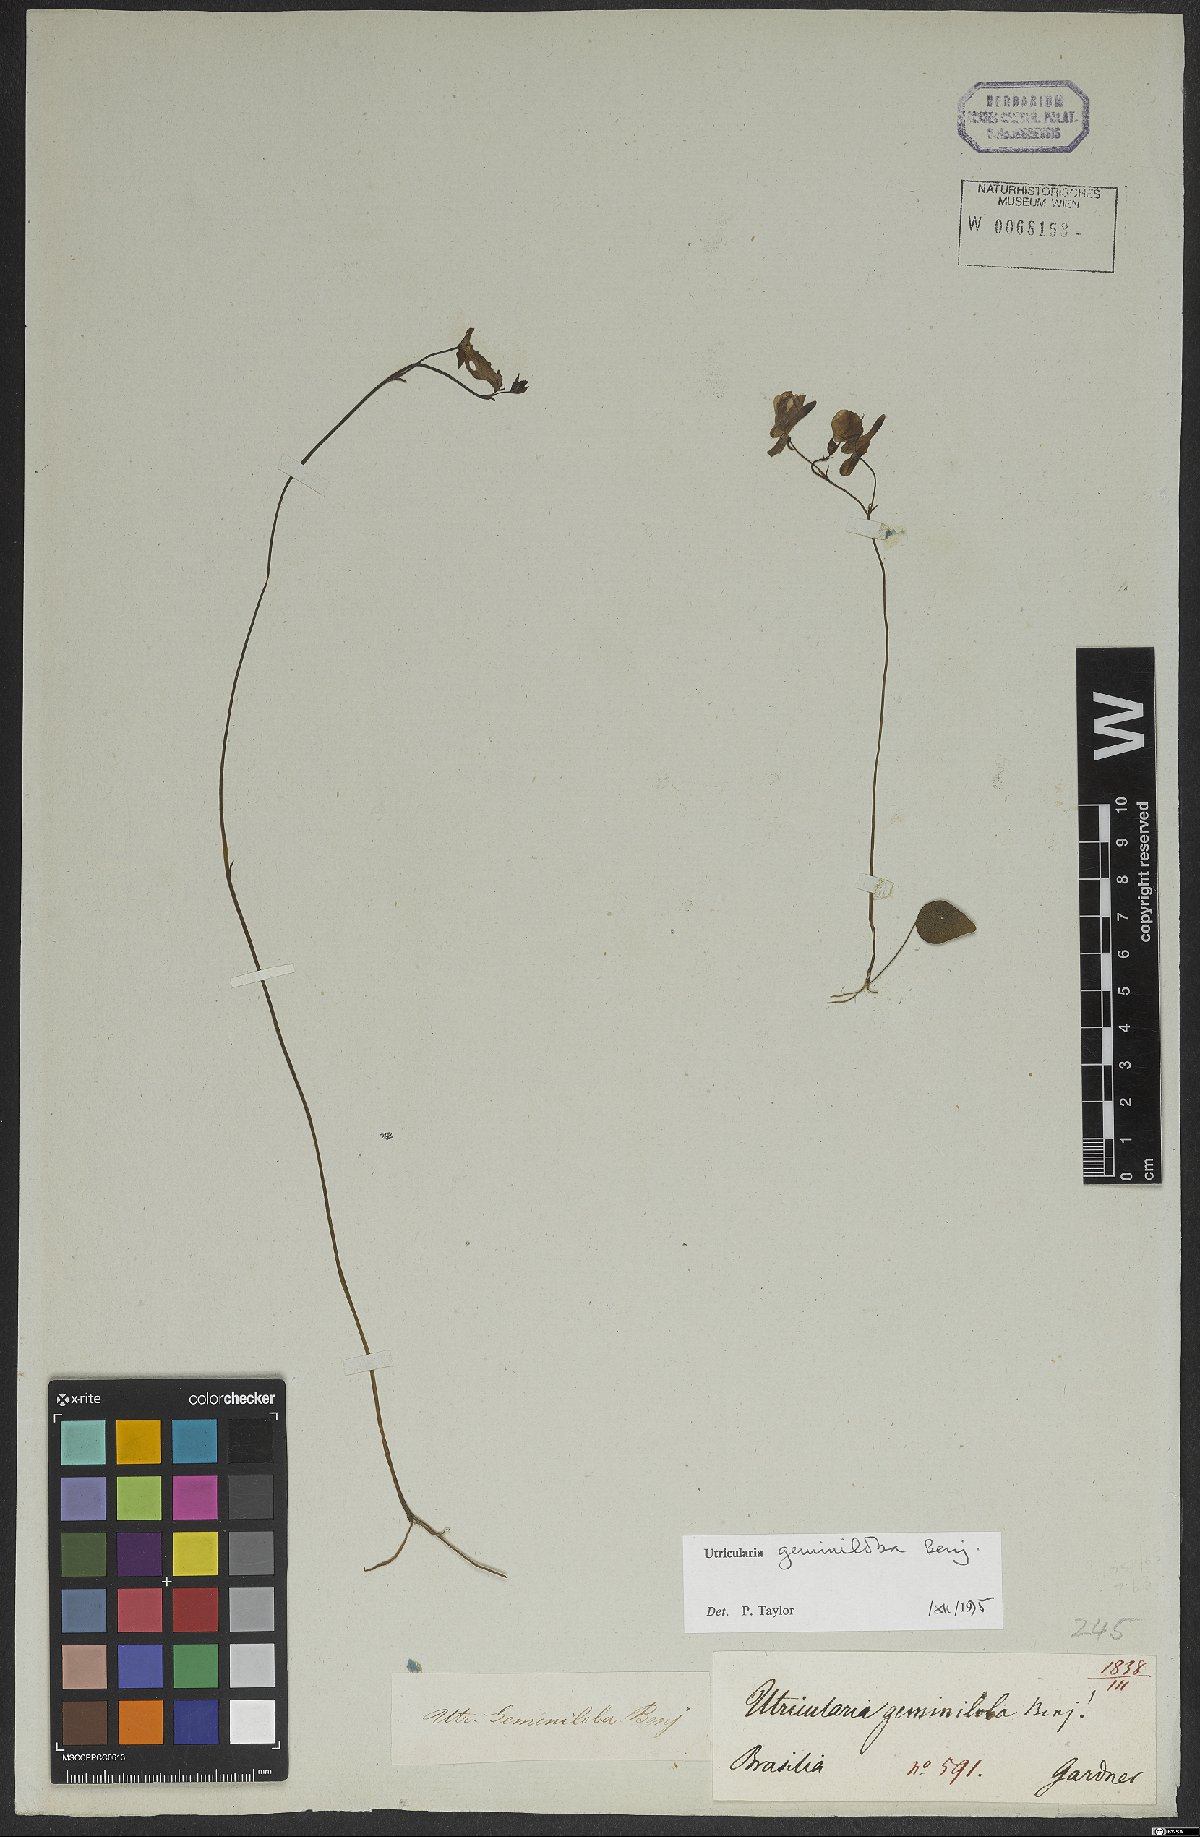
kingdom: Plantae
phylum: Tracheophyta
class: Magnoliopsida
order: Lamiales
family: Lentibulariaceae
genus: Utricularia
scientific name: Utricularia geminiloba
